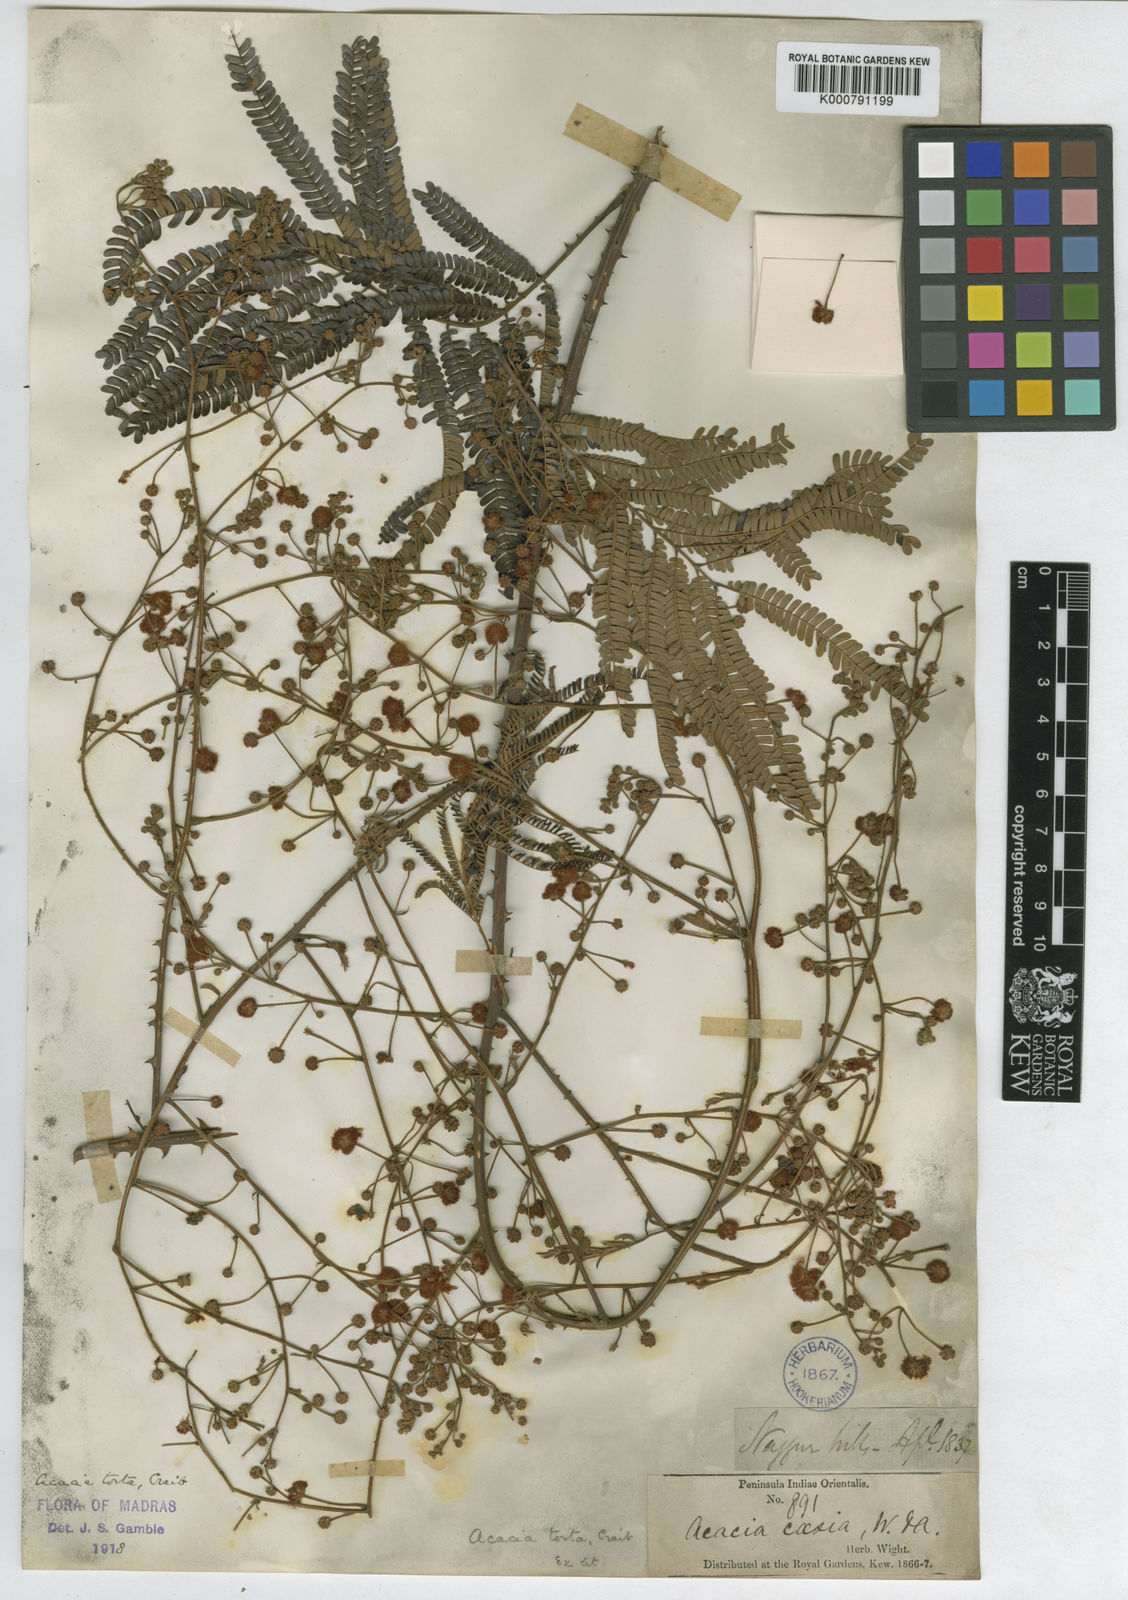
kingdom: Plantae
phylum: Tracheophyta
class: Magnoliopsida
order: Fabales
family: Fabaceae
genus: Senegalia
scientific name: Senegalia torta
